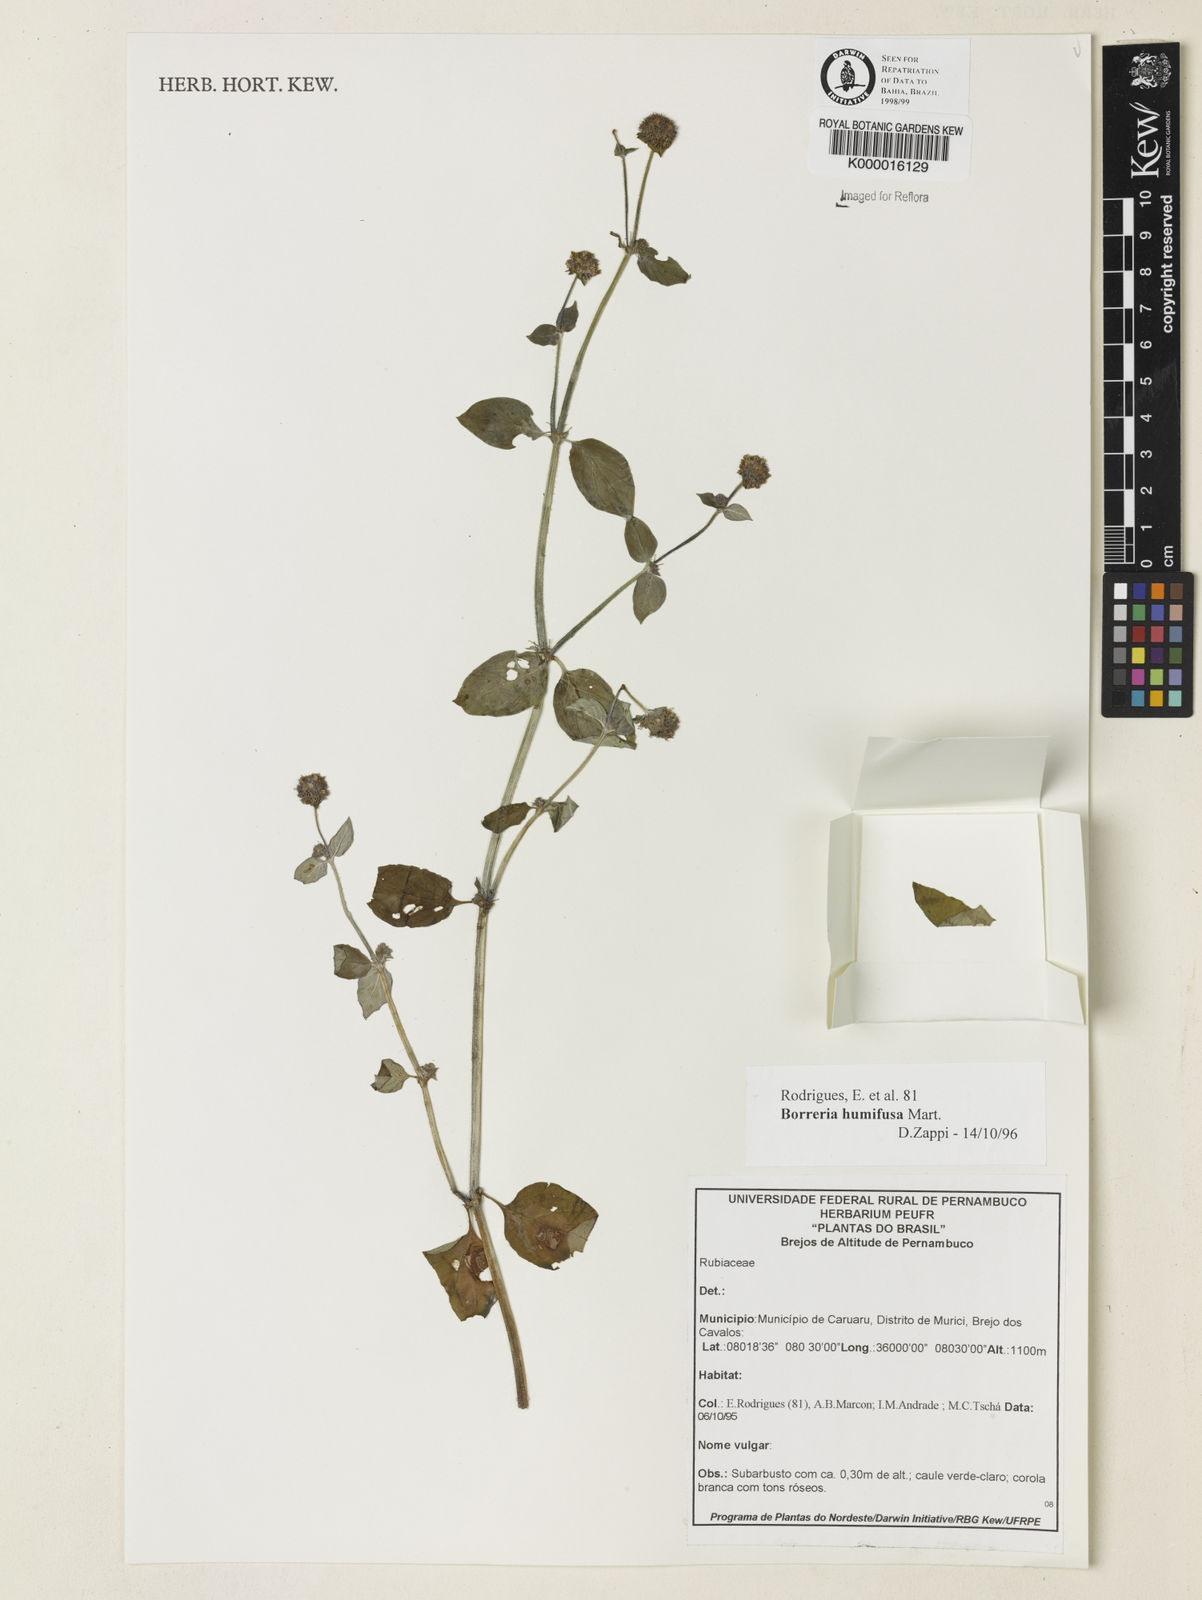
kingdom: Plantae
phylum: Tracheophyta
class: Magnoliopsida
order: Gentianales
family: Rubiaceae
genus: Spermacoce
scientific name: Spermacoce scabiosoides
